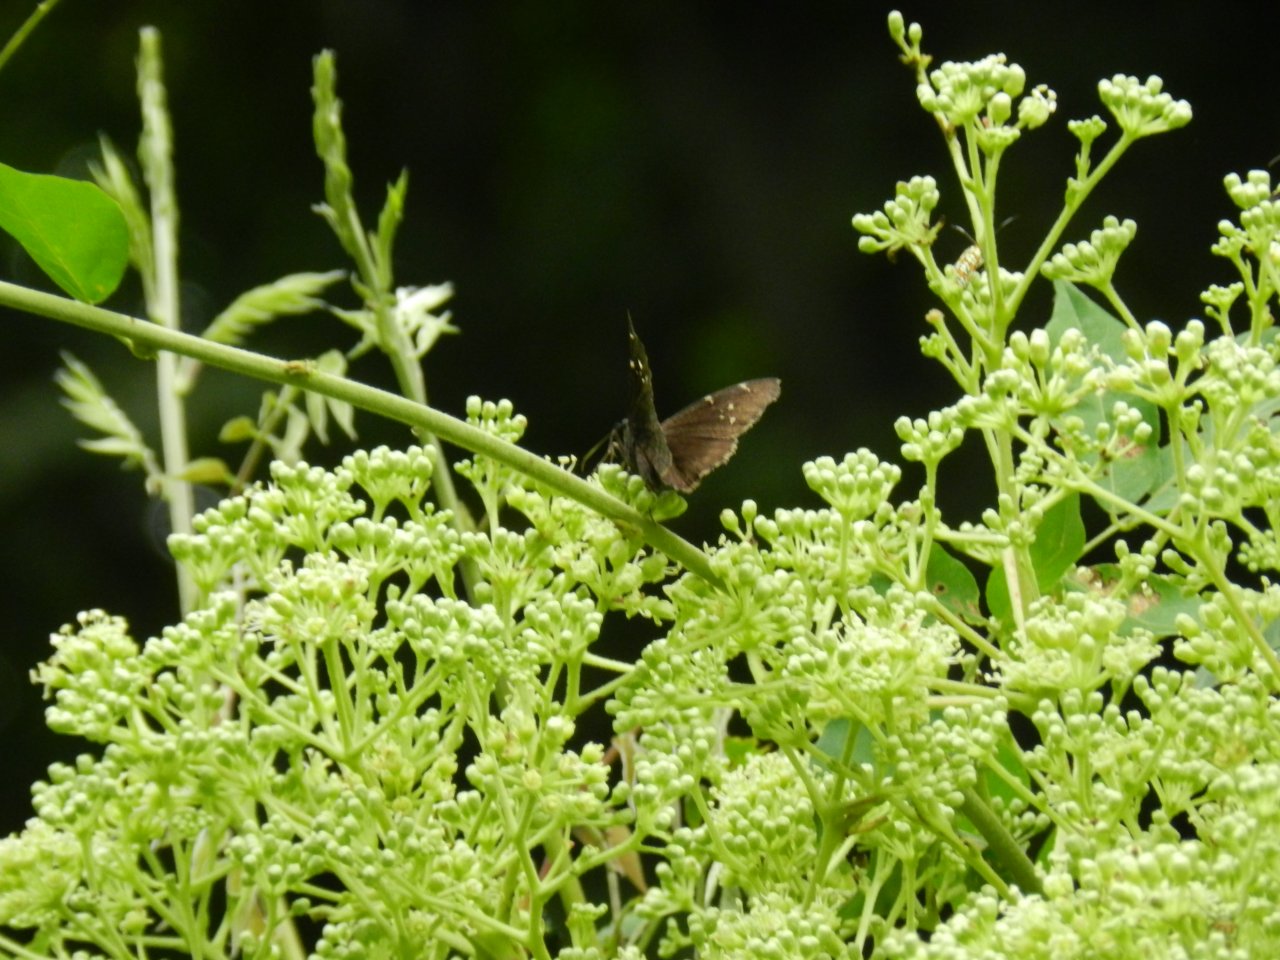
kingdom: Animalia
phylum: Arthropoda
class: Insecta
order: Lepidoptera
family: Hesperiidae
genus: Autochton
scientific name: Autochton
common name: Northern Cloudywing
